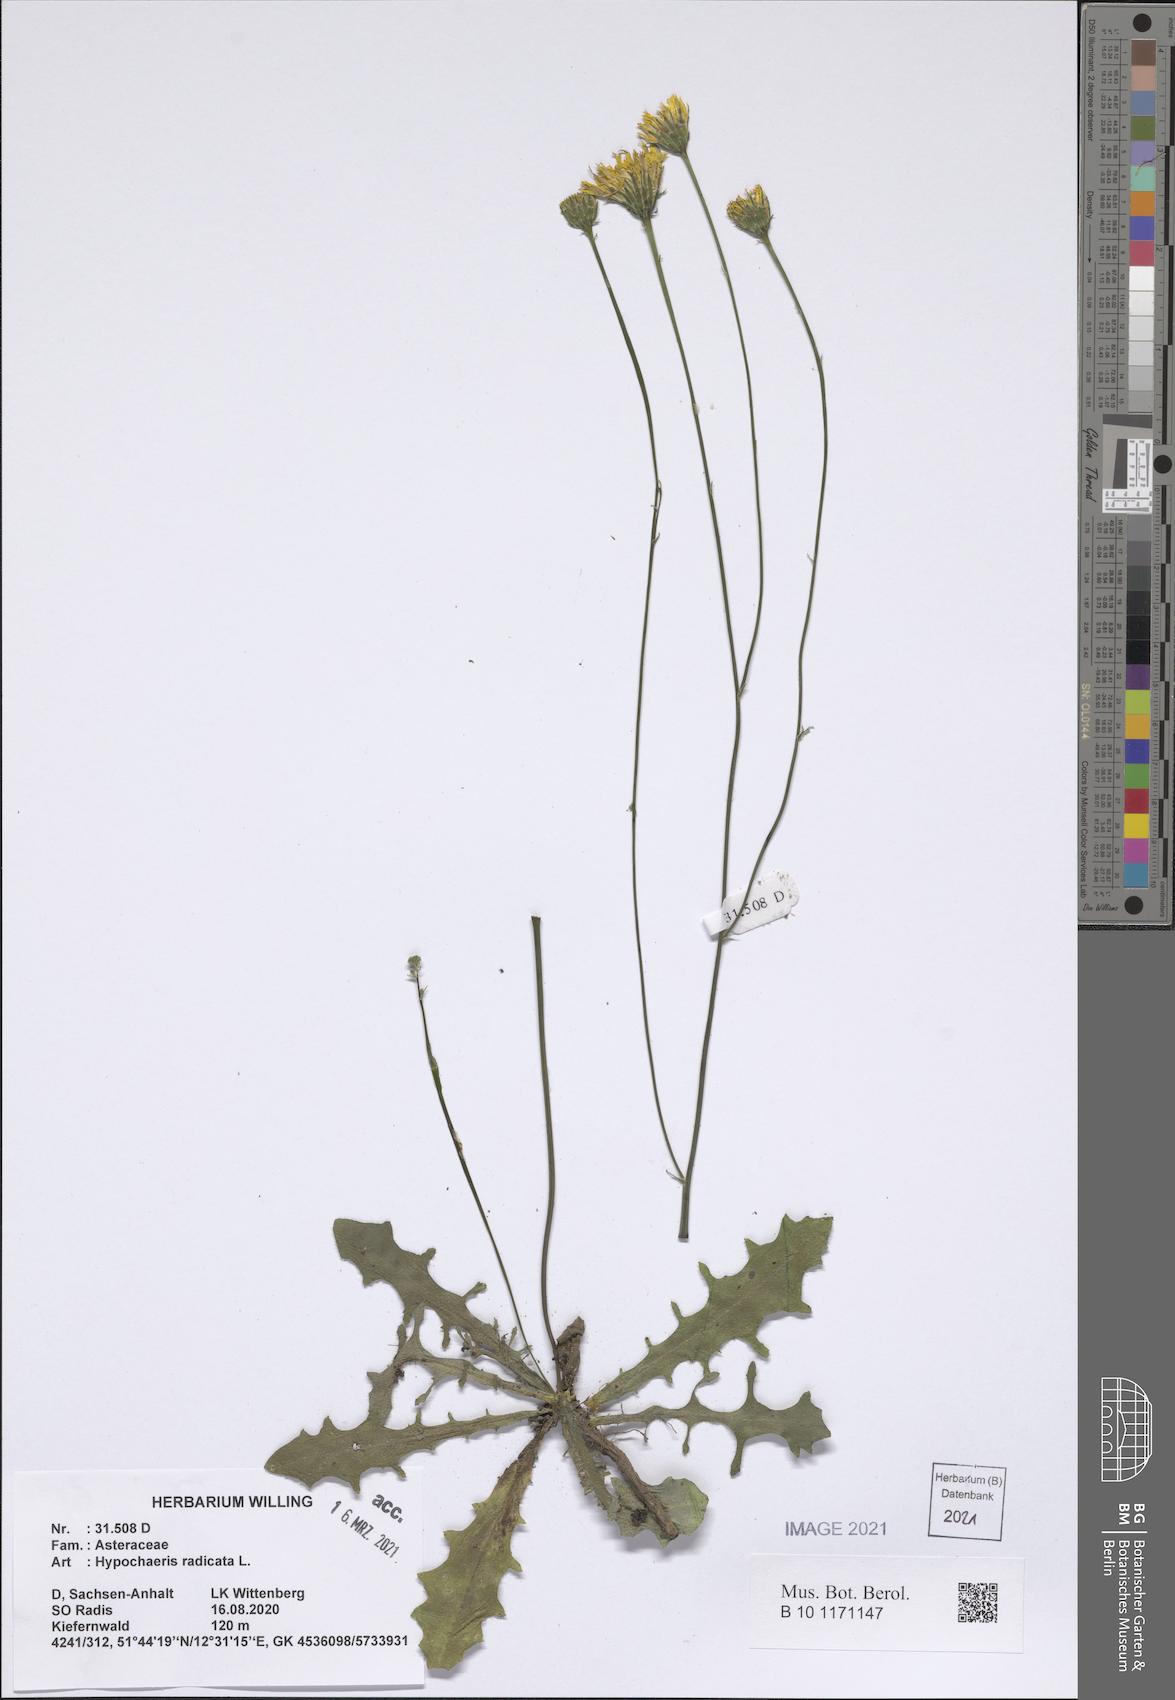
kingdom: Plantae
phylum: Tracheophyta
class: Magnoliopsida
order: Asterales
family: Asteraceae
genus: Hypochaeris
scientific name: Hypochaeris radicata
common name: Flatweed
